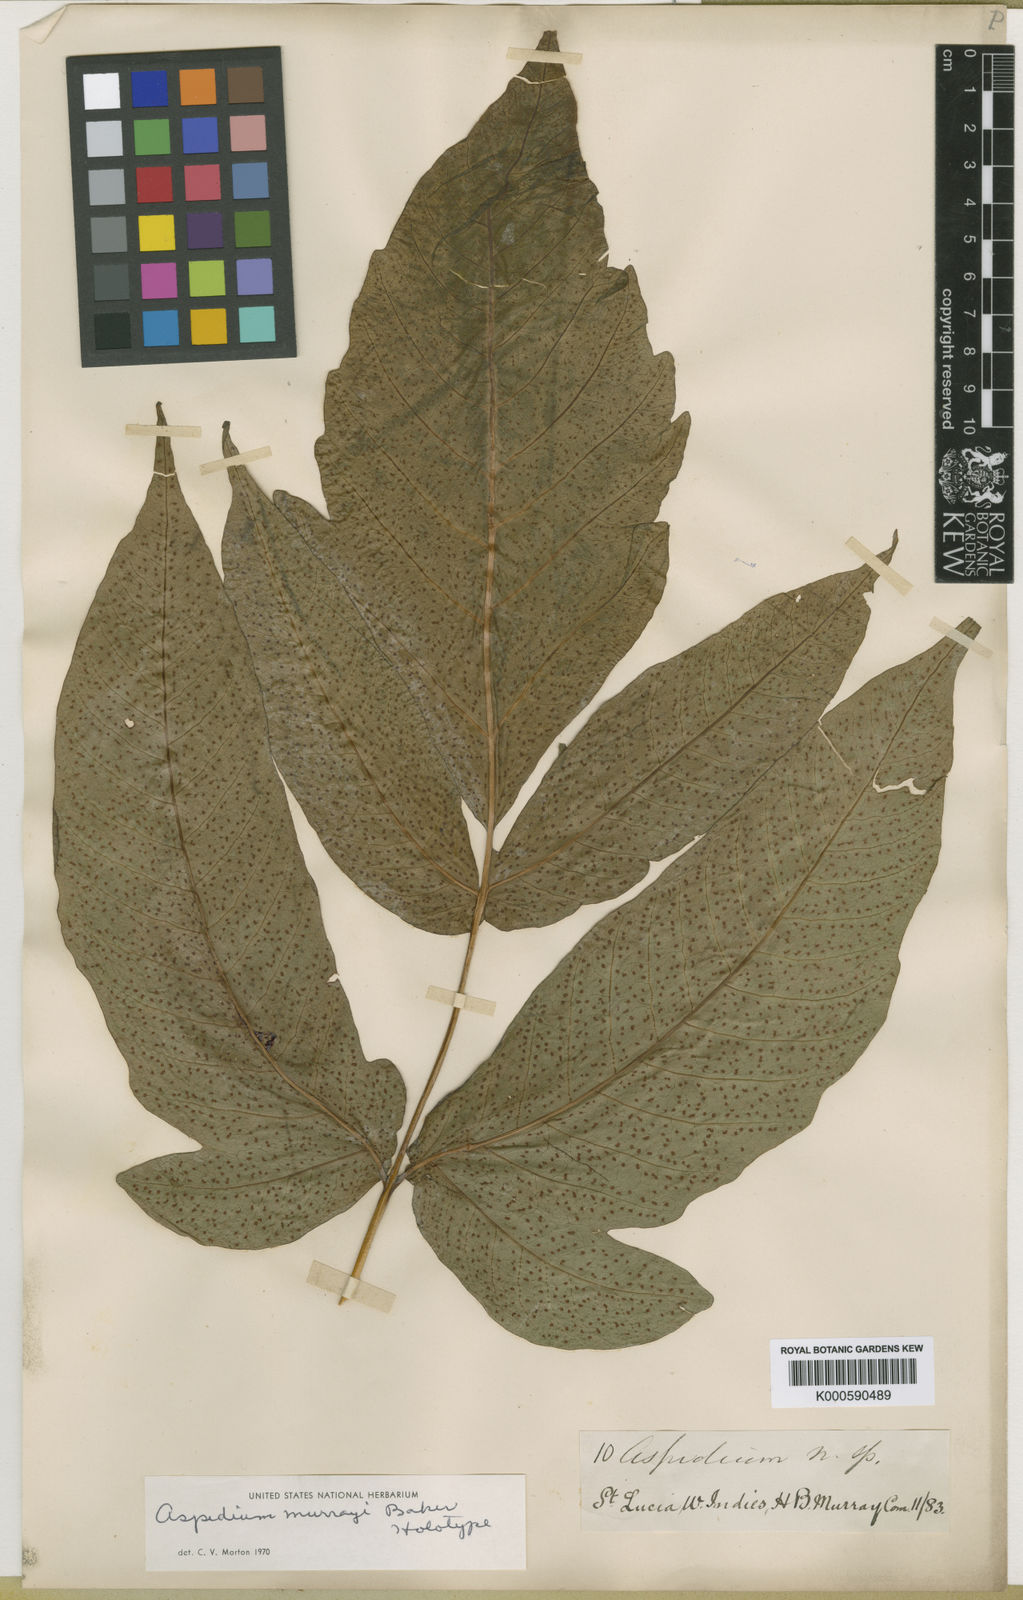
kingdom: Plantae
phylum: Tracheophyta
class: Polypodiopsida
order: Polypodiales
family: Tectariaceae
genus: Tectaria
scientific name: Tectaria trifoliata
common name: Threeleaf halberd fern
